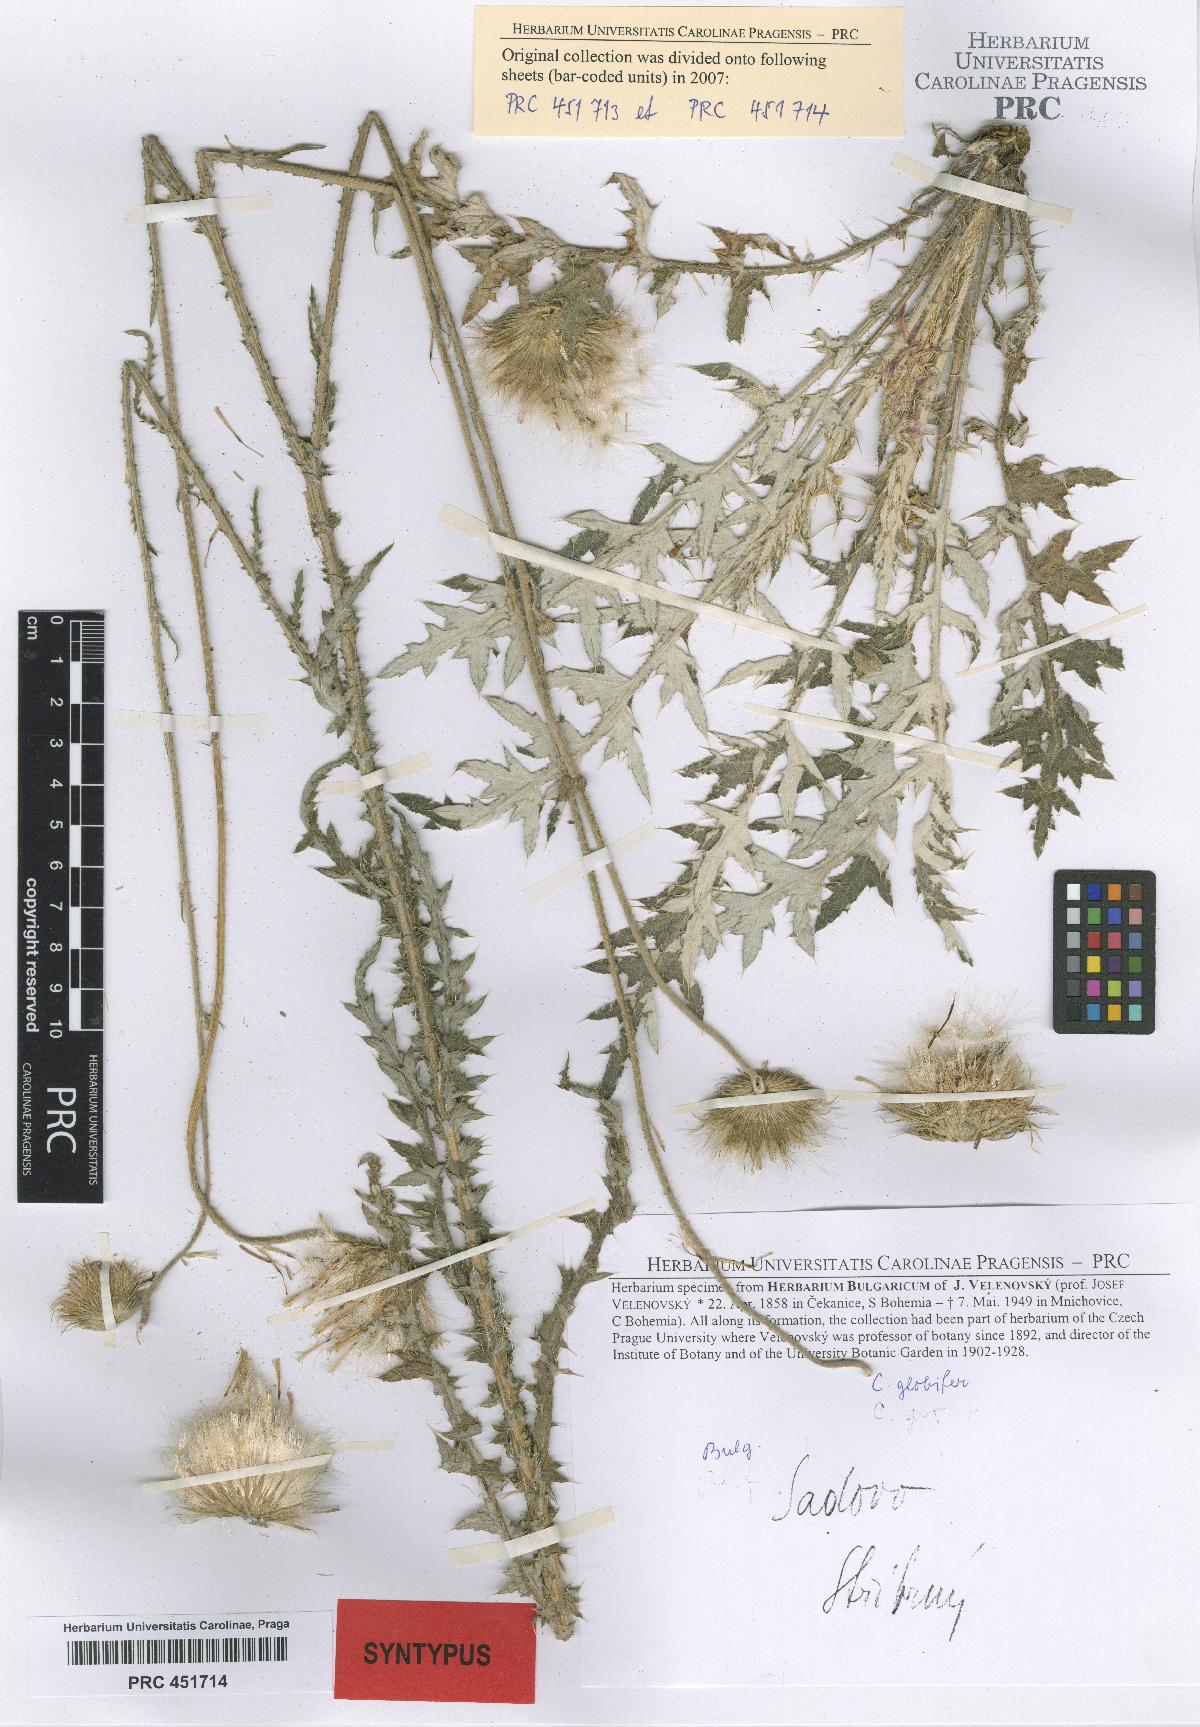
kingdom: Plantae
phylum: Tracheophyta
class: Magnoliopsida
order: Asterales
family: Asteraceae
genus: Carduus
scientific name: Carduus candicans
